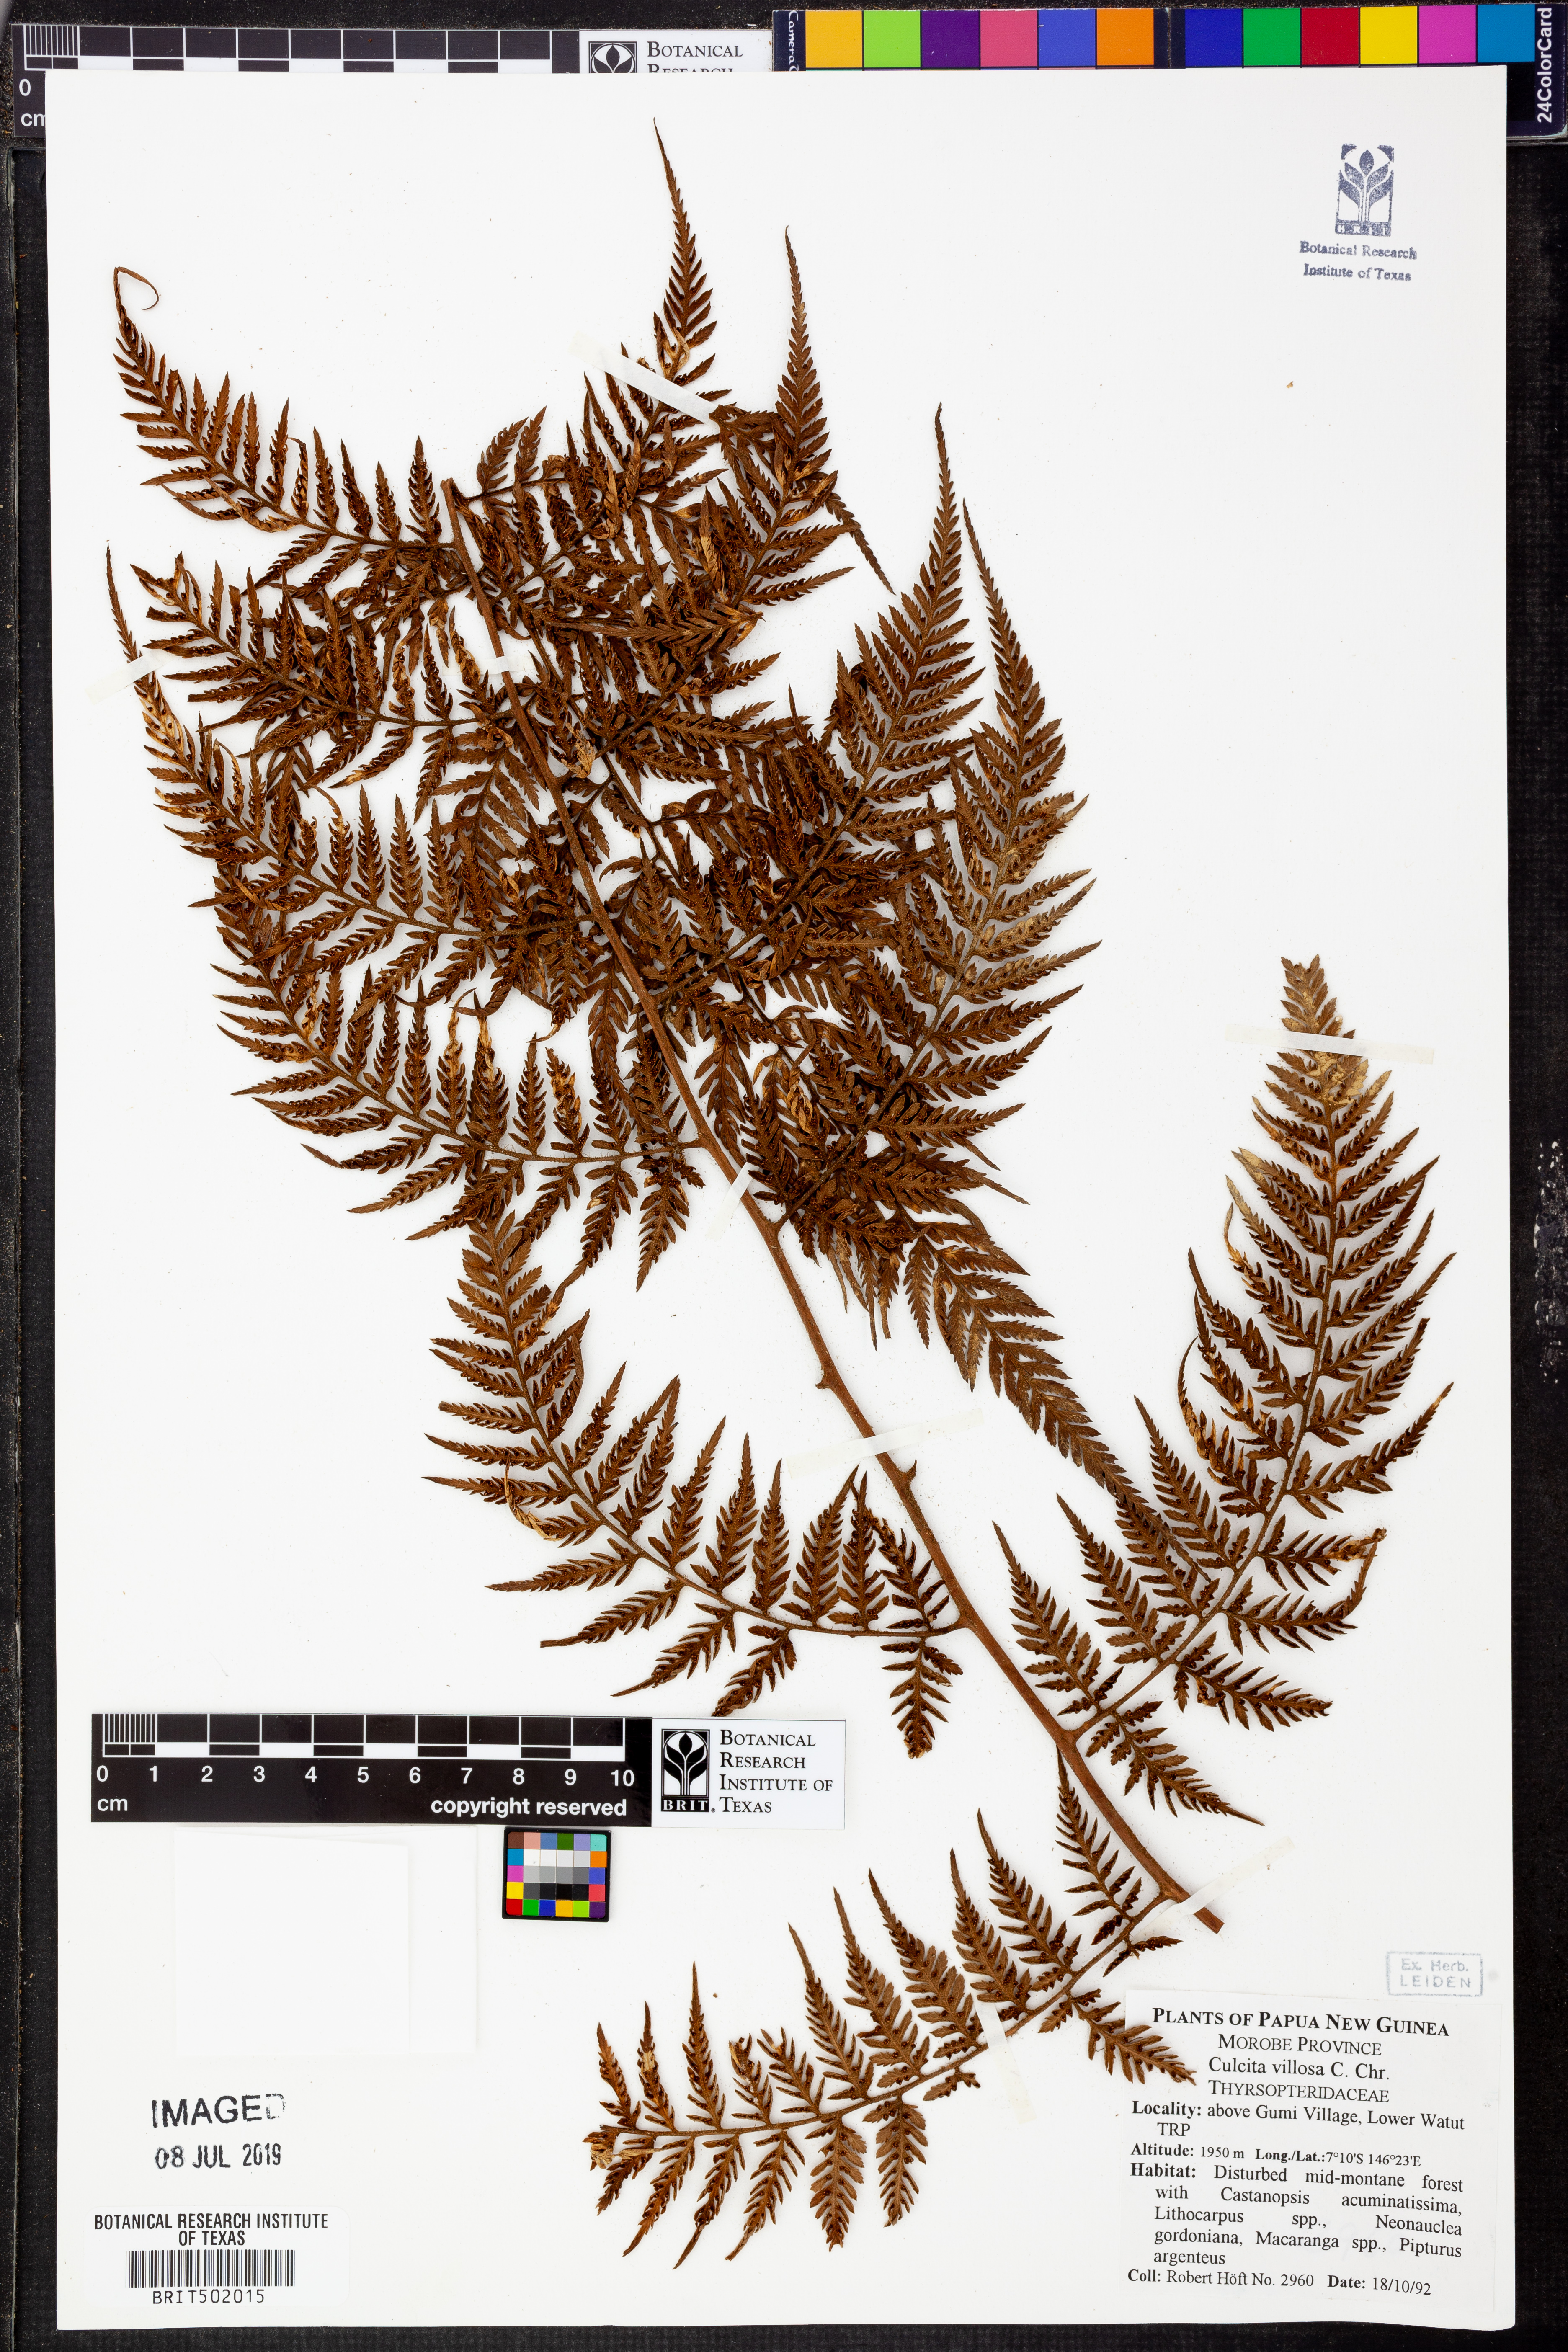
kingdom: Plantae
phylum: Tracheophyta
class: Polypodiopsida
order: Cyatheales
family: Dicksoniaceae
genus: Calochlaena
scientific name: Calochlaena villosa
